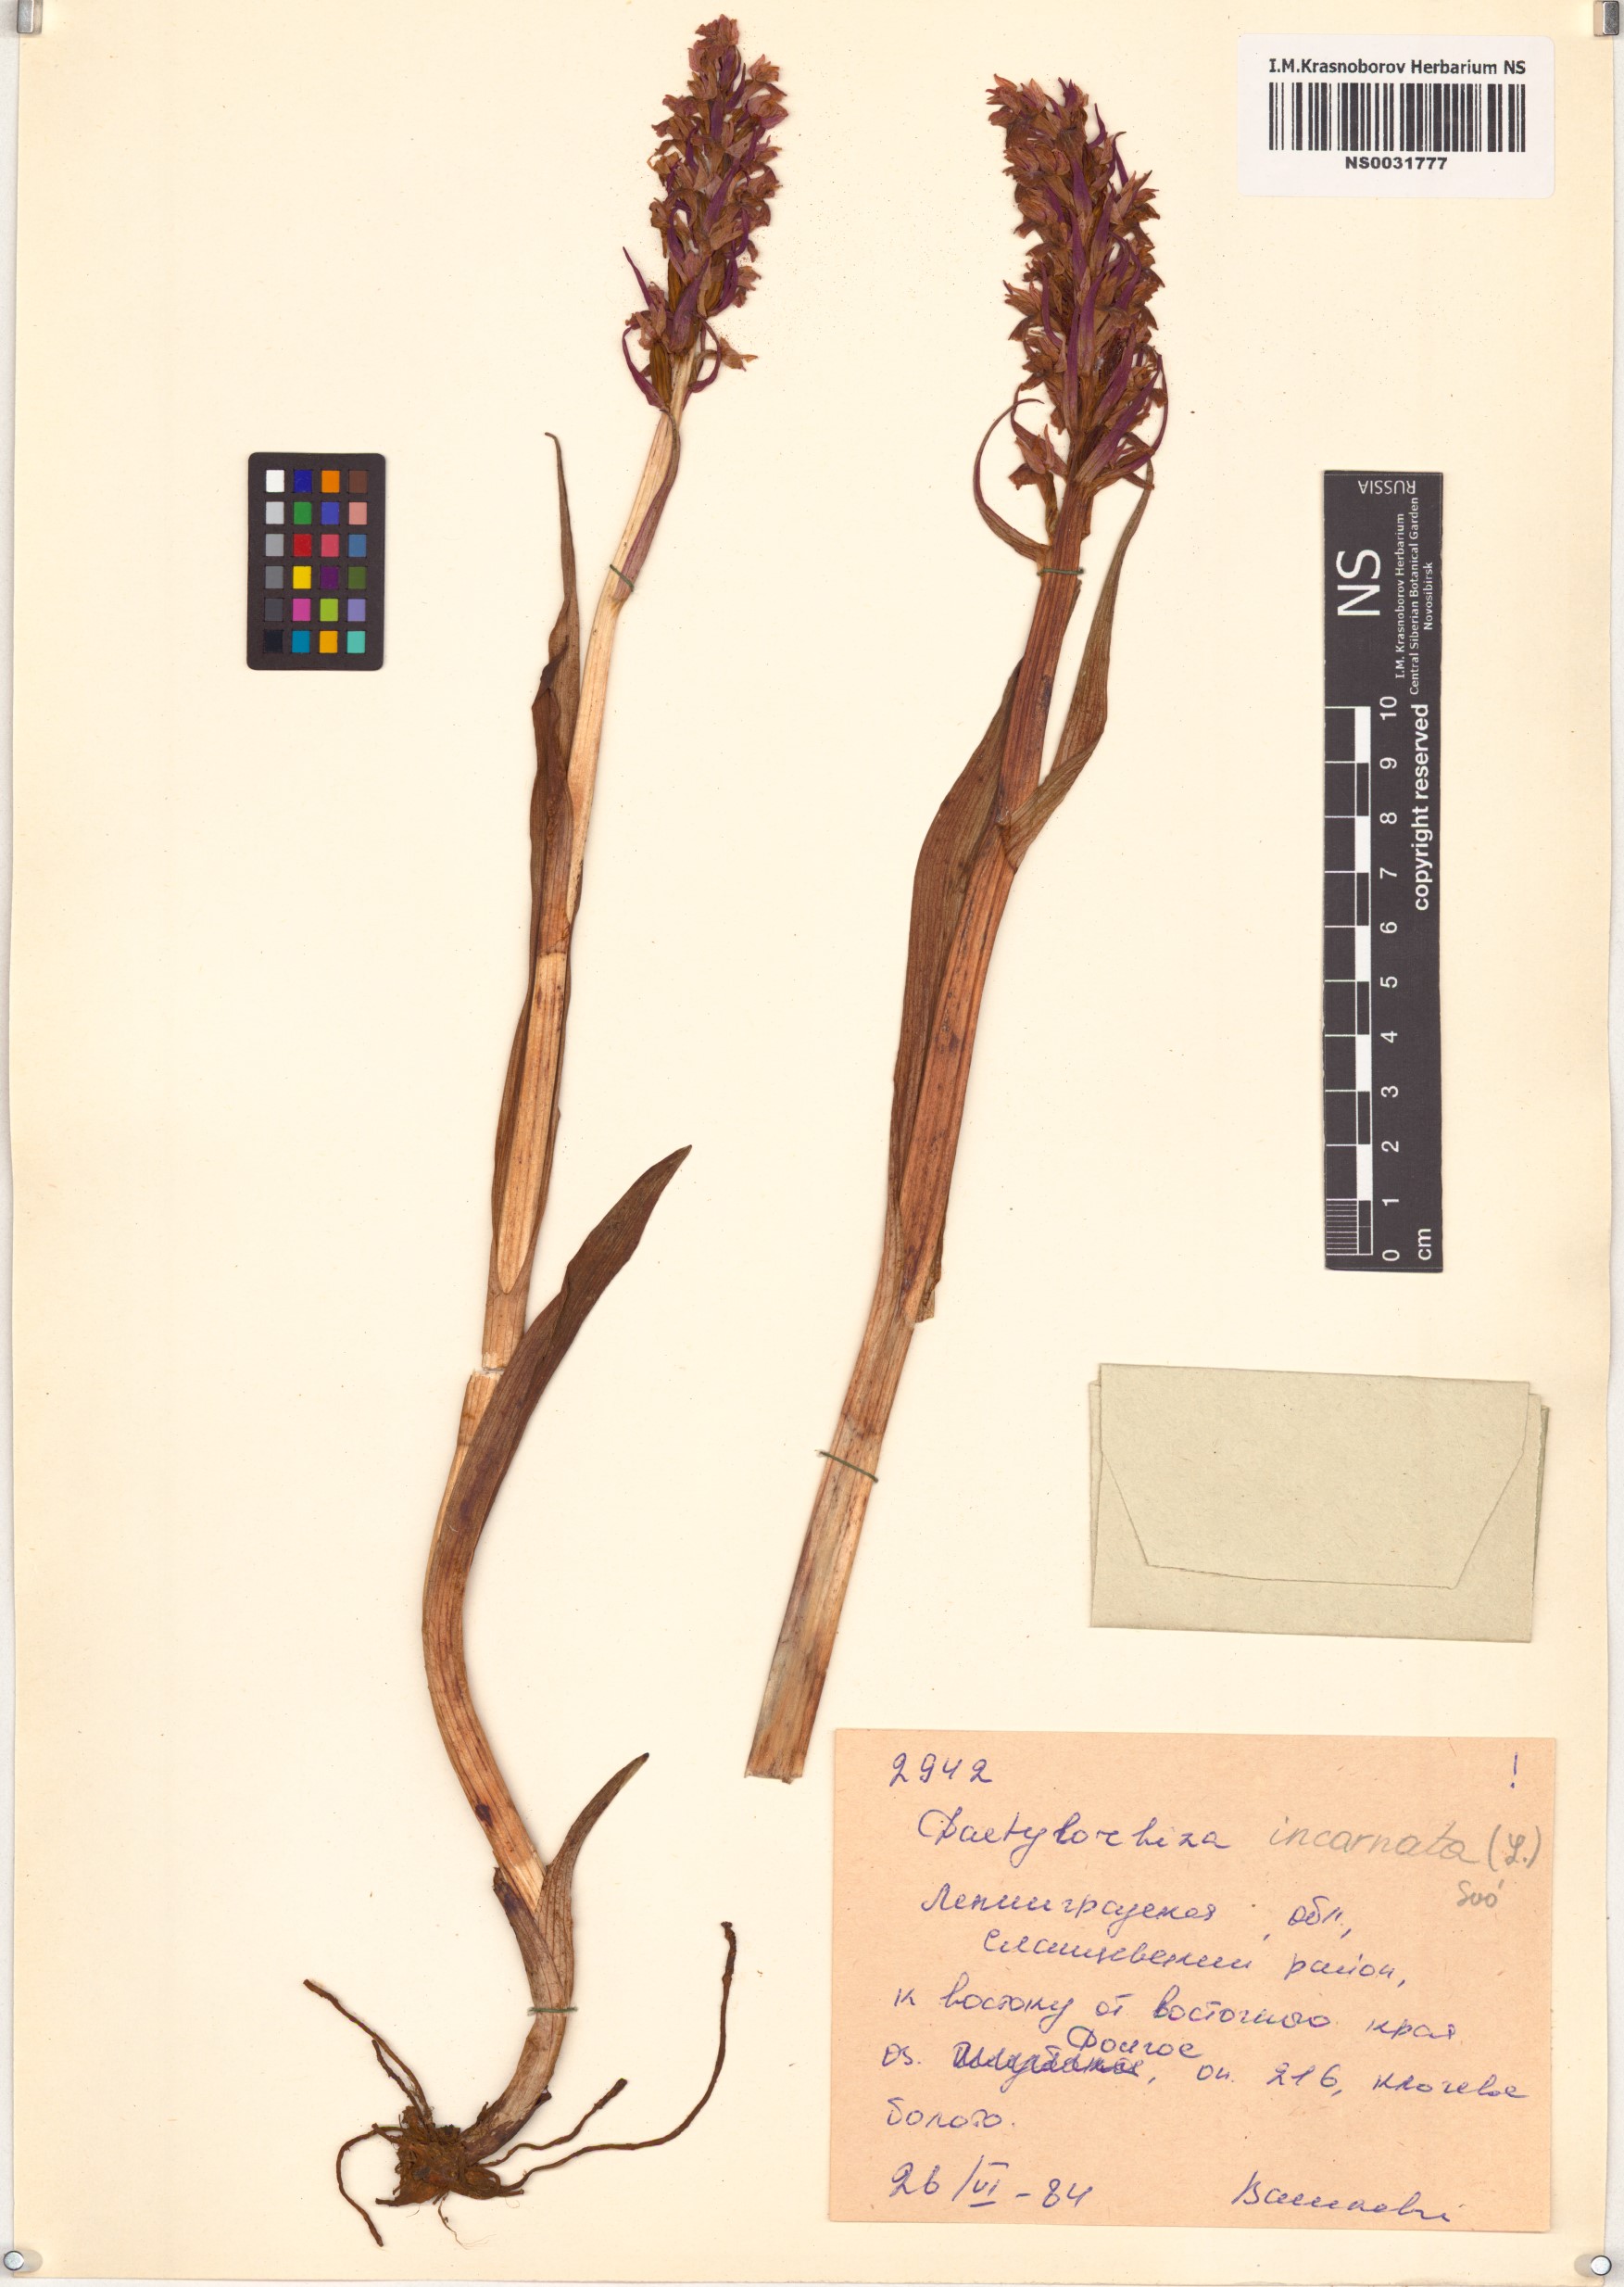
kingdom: Plantae
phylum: Tracheophyta
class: Liliopsida
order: Asparagales
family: Orchidaceae
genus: Dactylorhiza
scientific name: Dactylorhiza incarnata
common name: Early marsh-orchid
